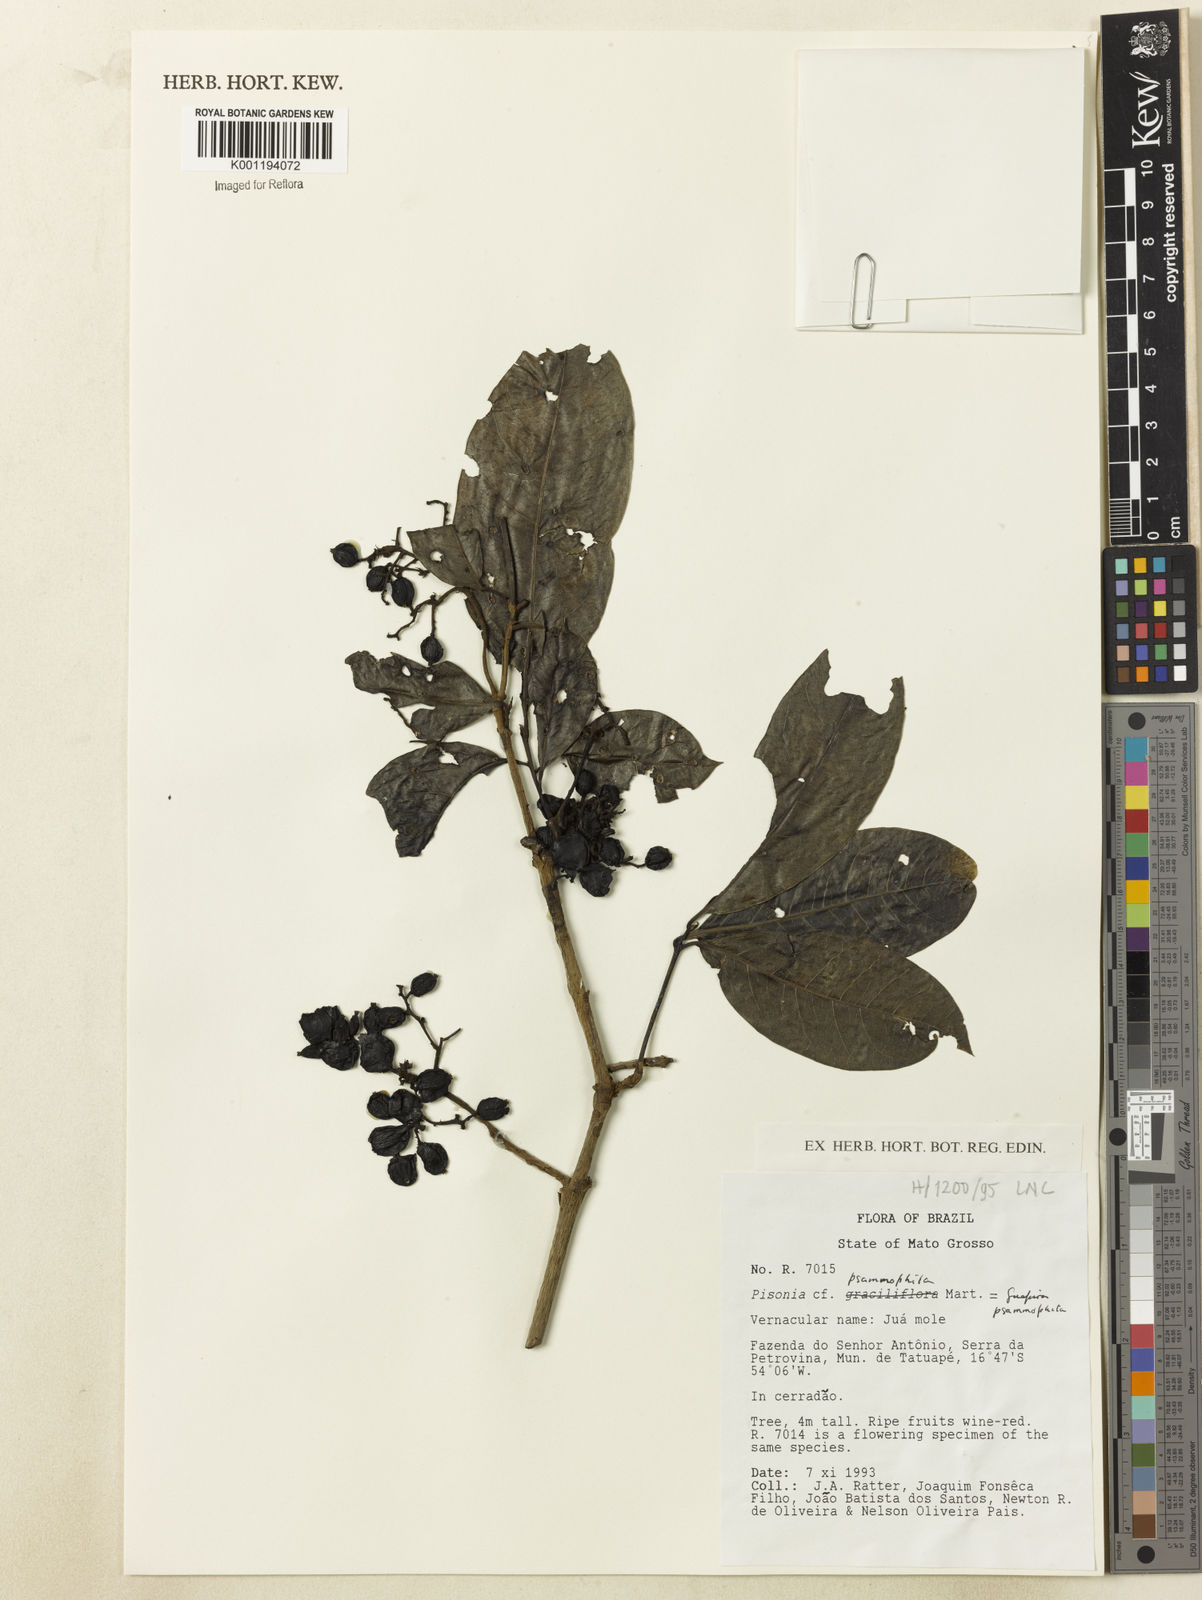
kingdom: Plantae
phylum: Tracheophyta
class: Magnoliopsida
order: Caryophyllales
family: Nyctaginaceae
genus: Guapira
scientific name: Guapira laxa
